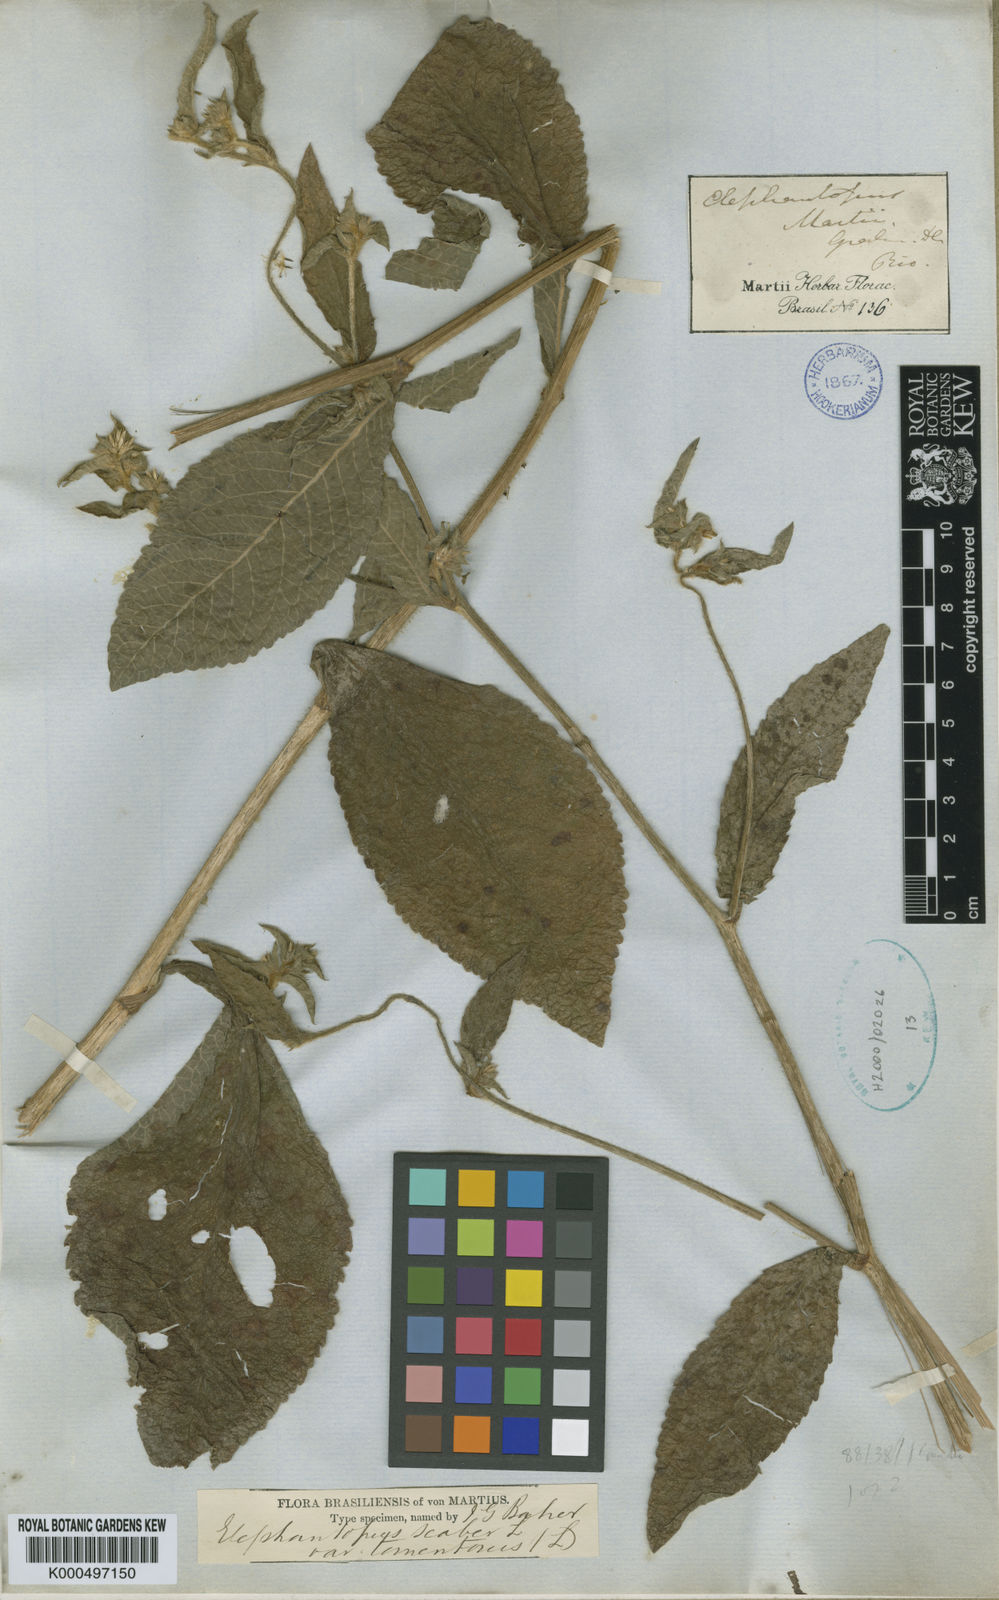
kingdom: Plantae
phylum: Tracheophyta
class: Magnoliopsida
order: Asterales
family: Asteraceae
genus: Elephantopus
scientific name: Elephantopus mollis
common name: Soft elephantsfoot
